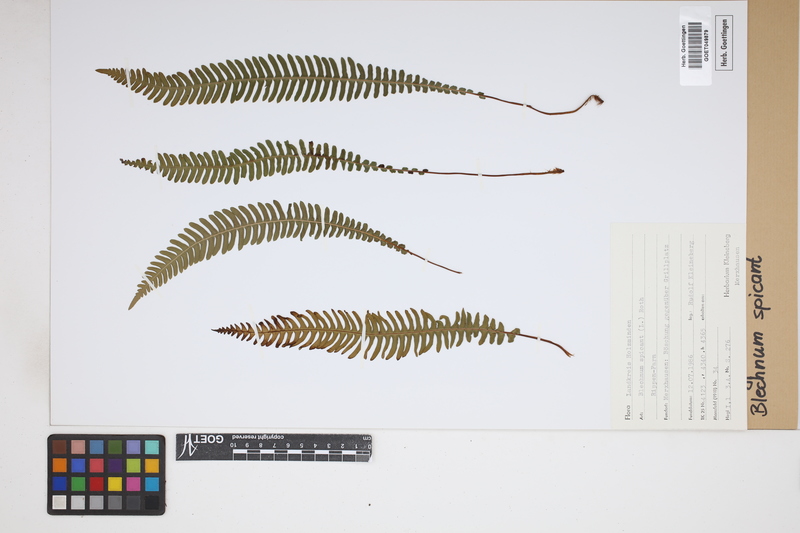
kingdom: Plantae
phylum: Tracheophyta
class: Polypodiopsida
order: Polypodiales
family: Blechnaceae
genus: Struthiopteris
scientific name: Struthiopteris spicant
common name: Deer fern
